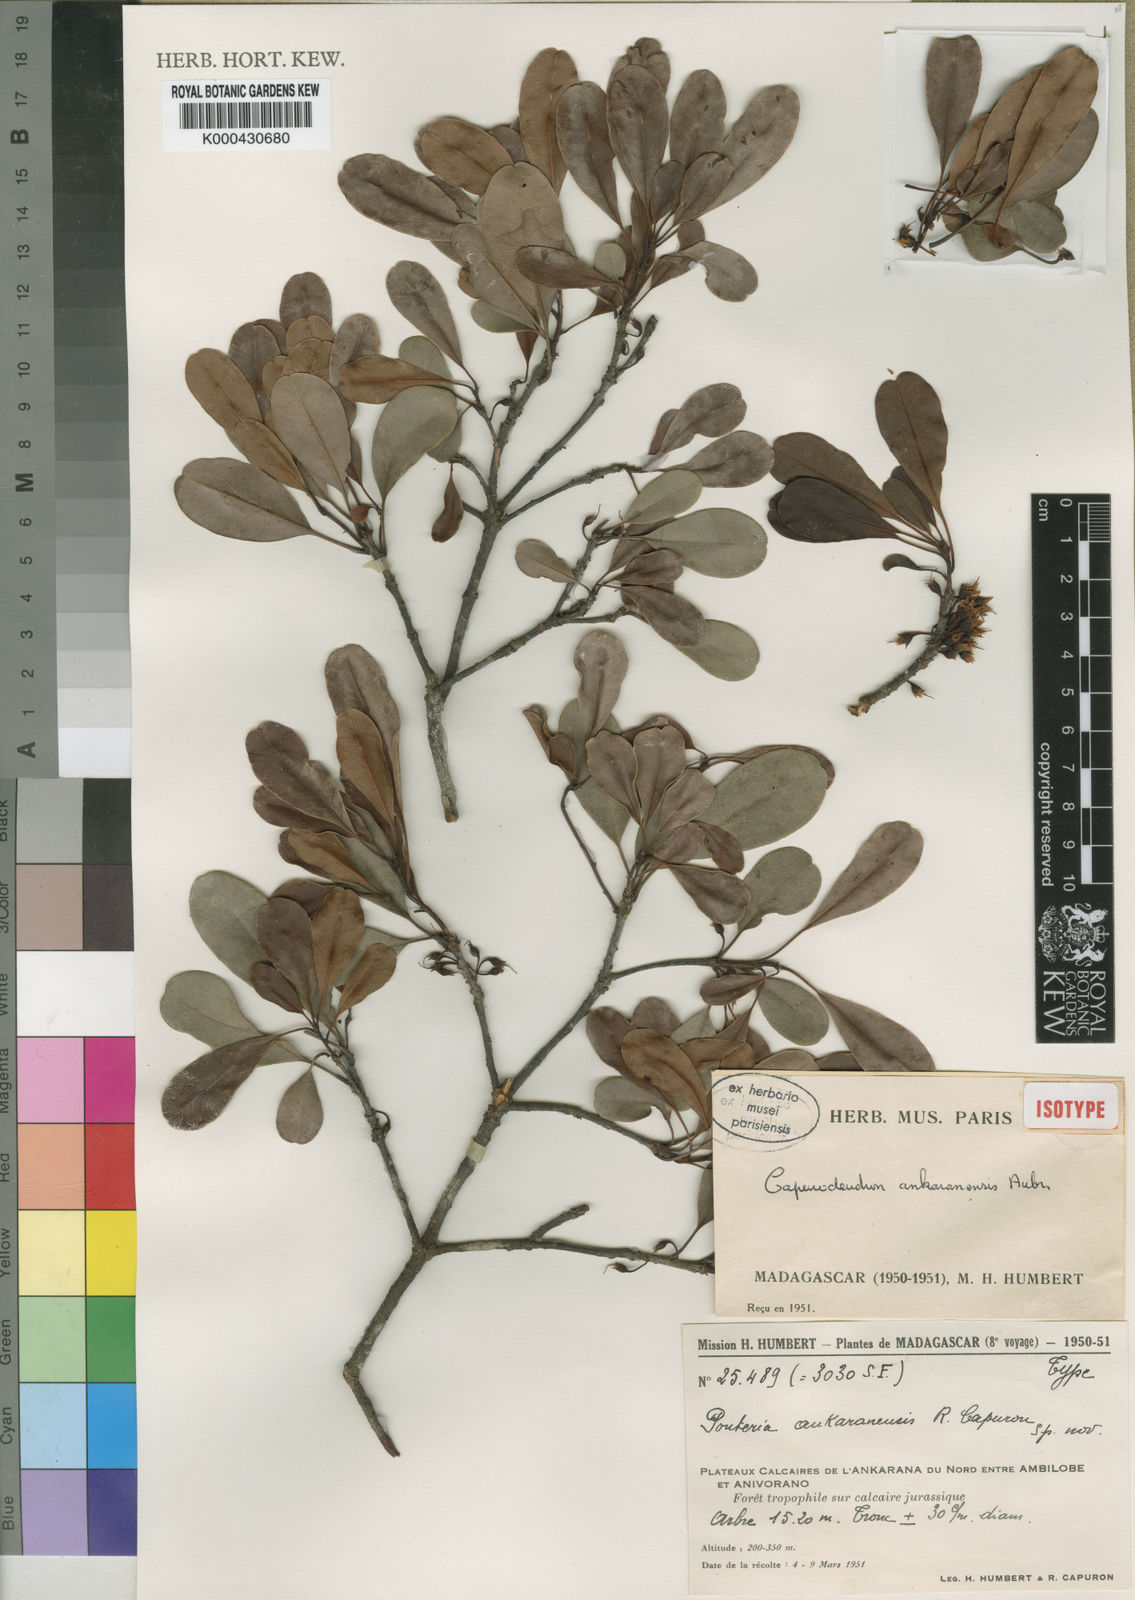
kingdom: Plantae
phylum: Tracheophyta
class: Magnoliopsida
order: Ericales
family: Sapotaceae
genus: Capurodendron
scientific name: Capurodendron
